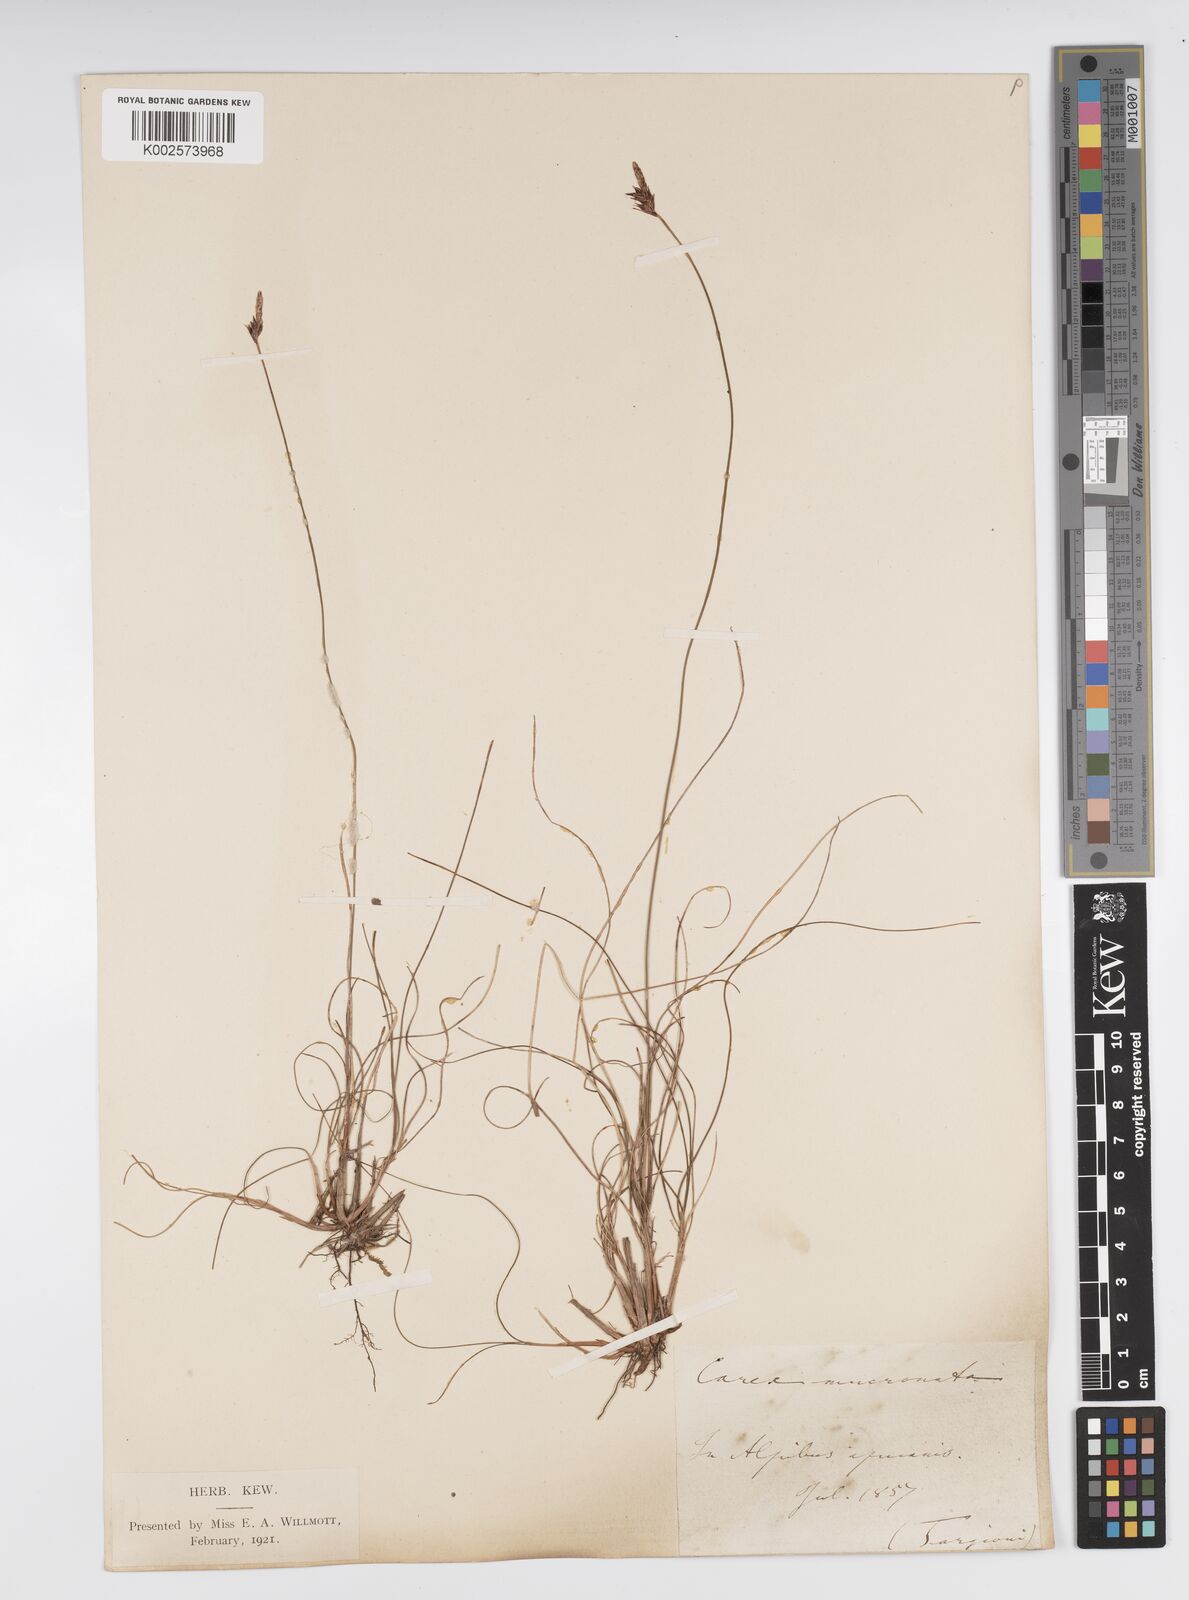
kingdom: Plantae
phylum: Tracheophyta
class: Liliopsida
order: Poales
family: Cyperaceae
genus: Carex
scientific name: Carex mucronata
